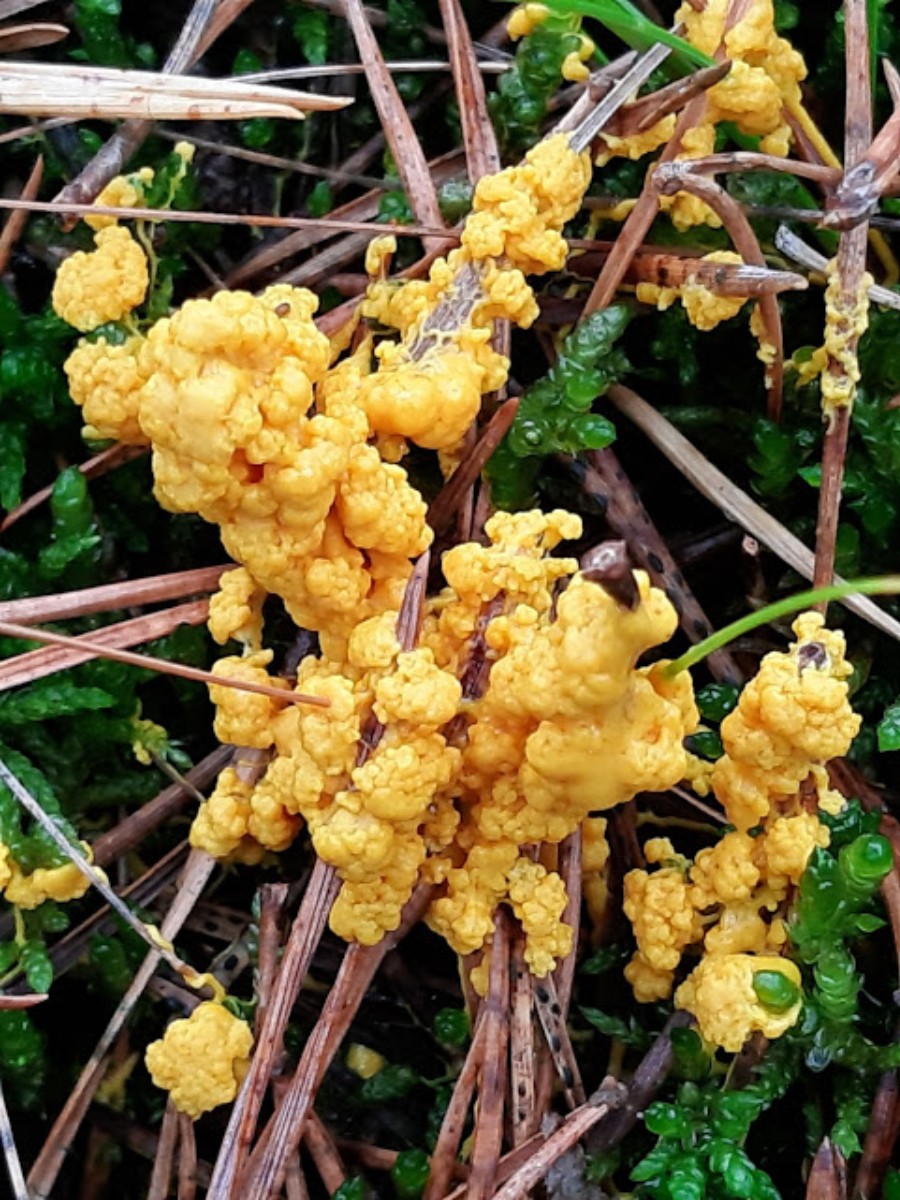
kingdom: Protozoa
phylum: Mycetozoa
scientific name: Mycetozoa
